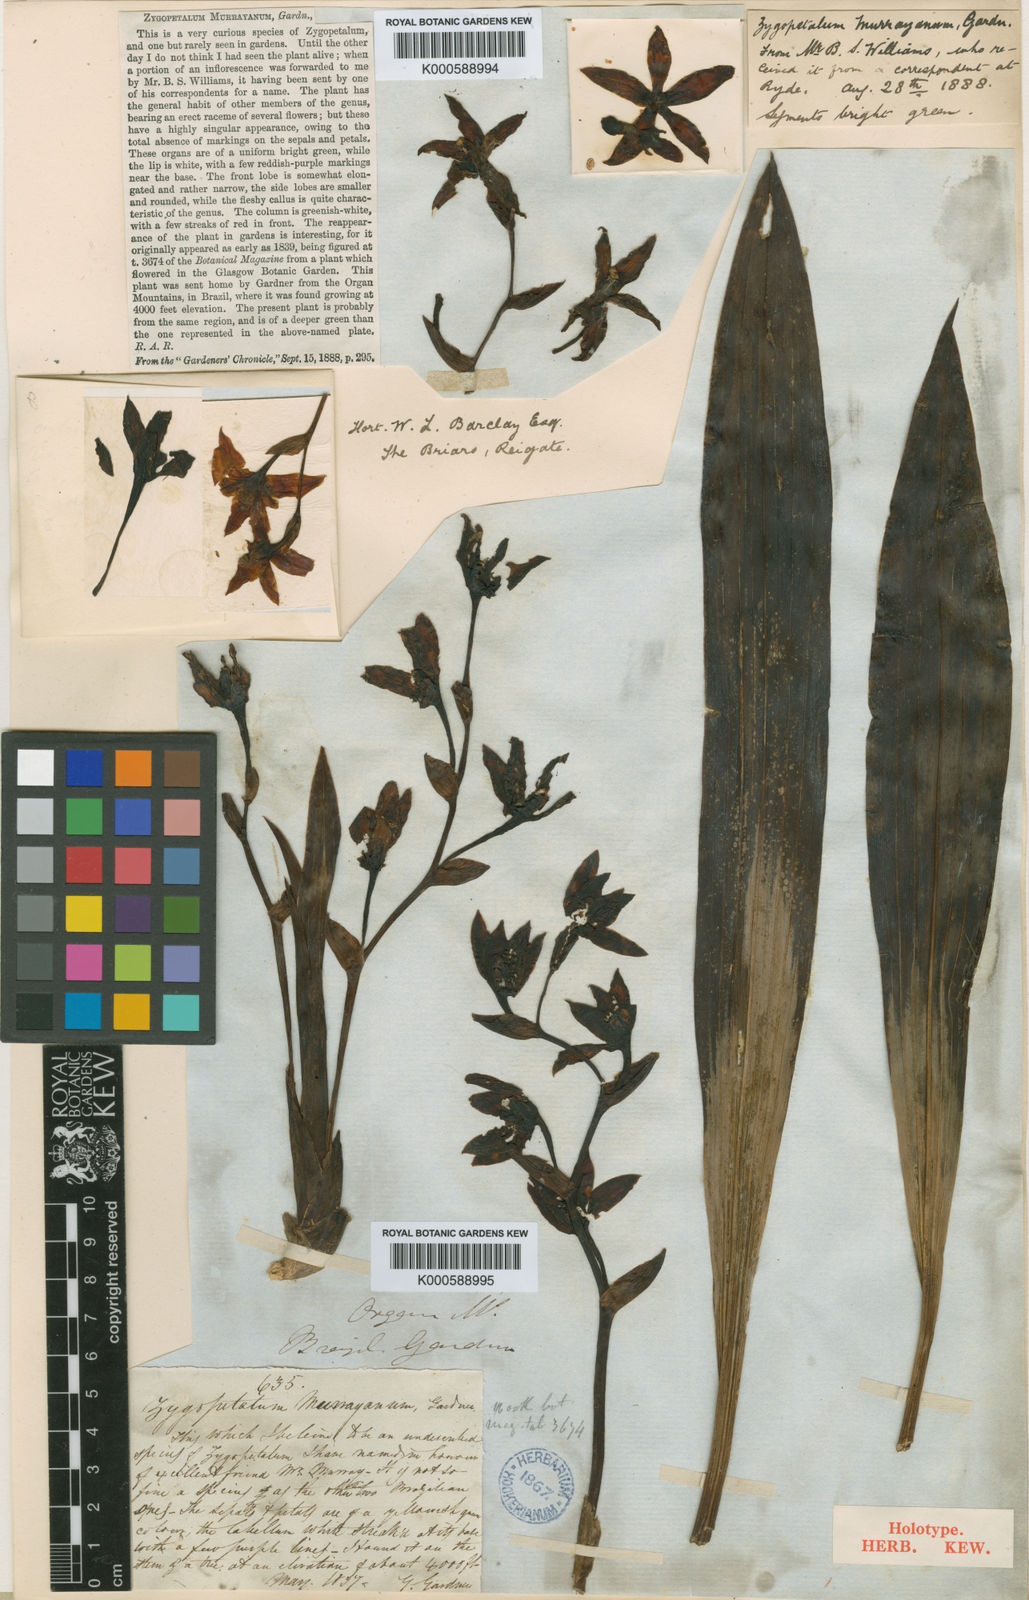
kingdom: Plantae
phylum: Tracheophyta
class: Liliopsida
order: Asparagales
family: Orchidaceae
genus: Neogardneria
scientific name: Neogardneria
